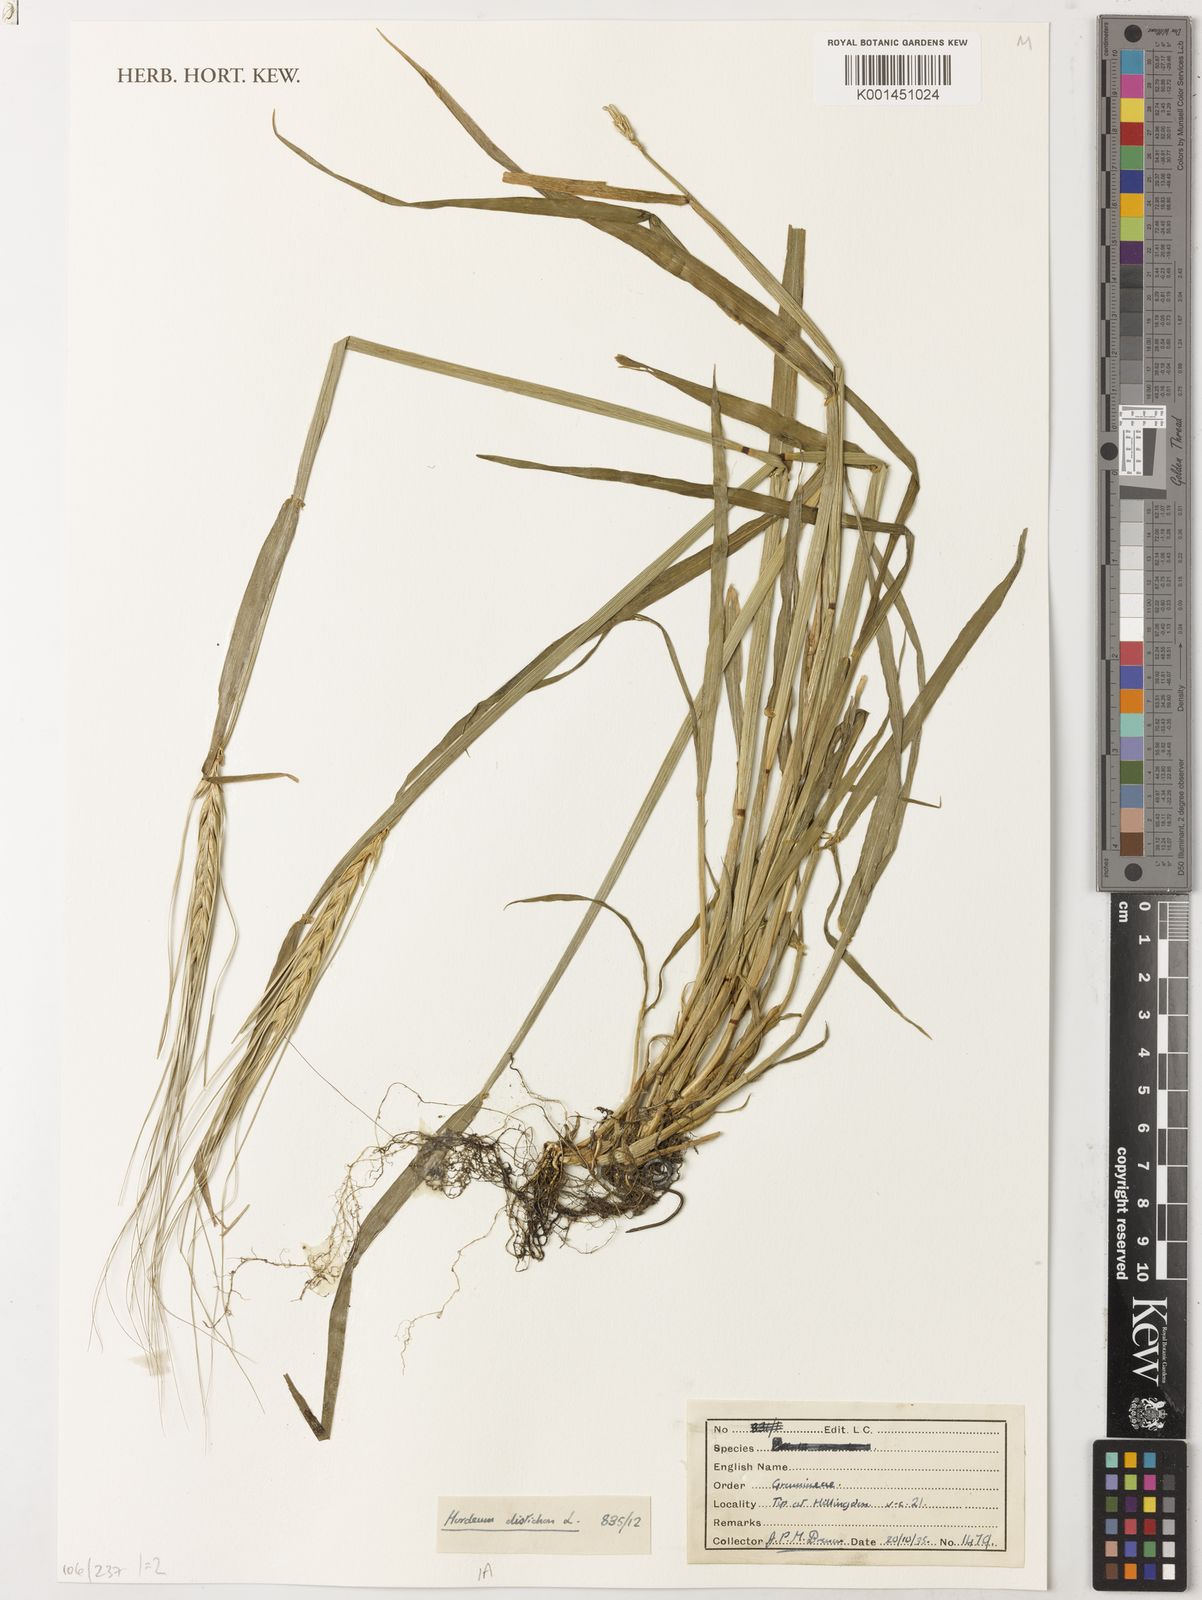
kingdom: Plantae
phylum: Tracheophyta
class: Liliopsida
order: Poales
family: Poaceae
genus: Hordeum
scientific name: Hordeum vulgare
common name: Common barley
